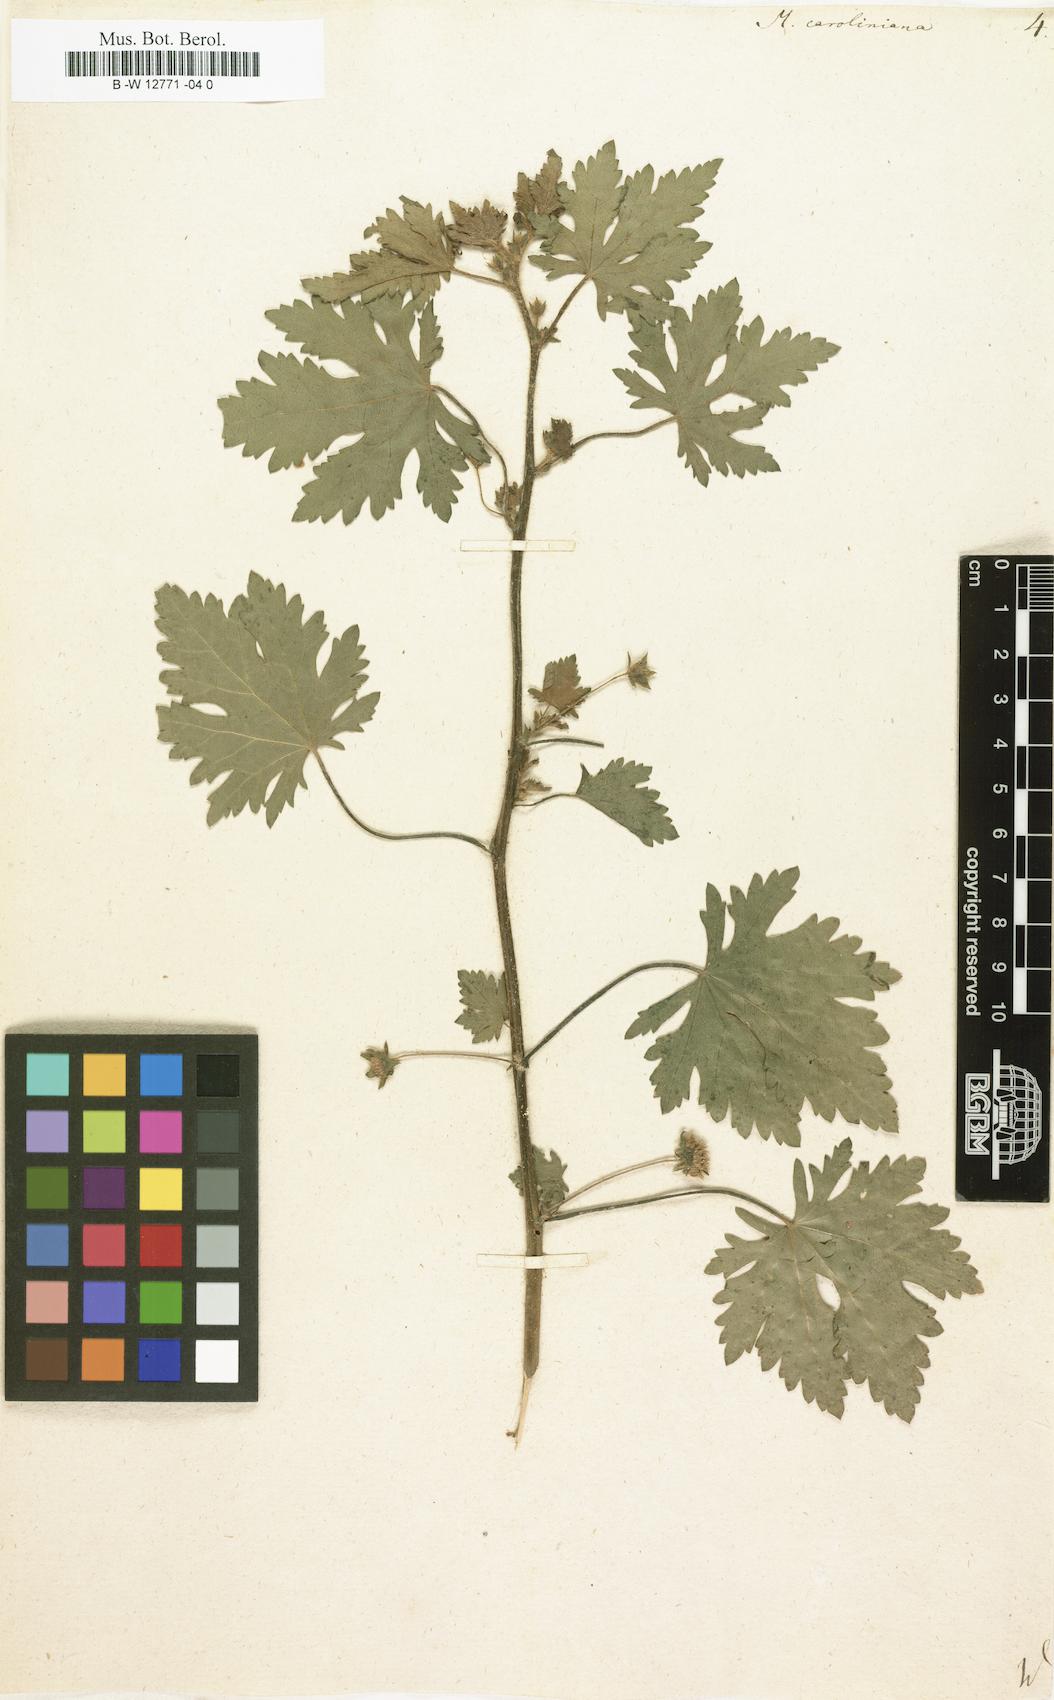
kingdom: Plantae
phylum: Tracheophyta
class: Magnoliopsida
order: Malvales
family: Malvaceae
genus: Modiola
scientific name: Modiola caroliniana
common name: Carolina bristlemallow
